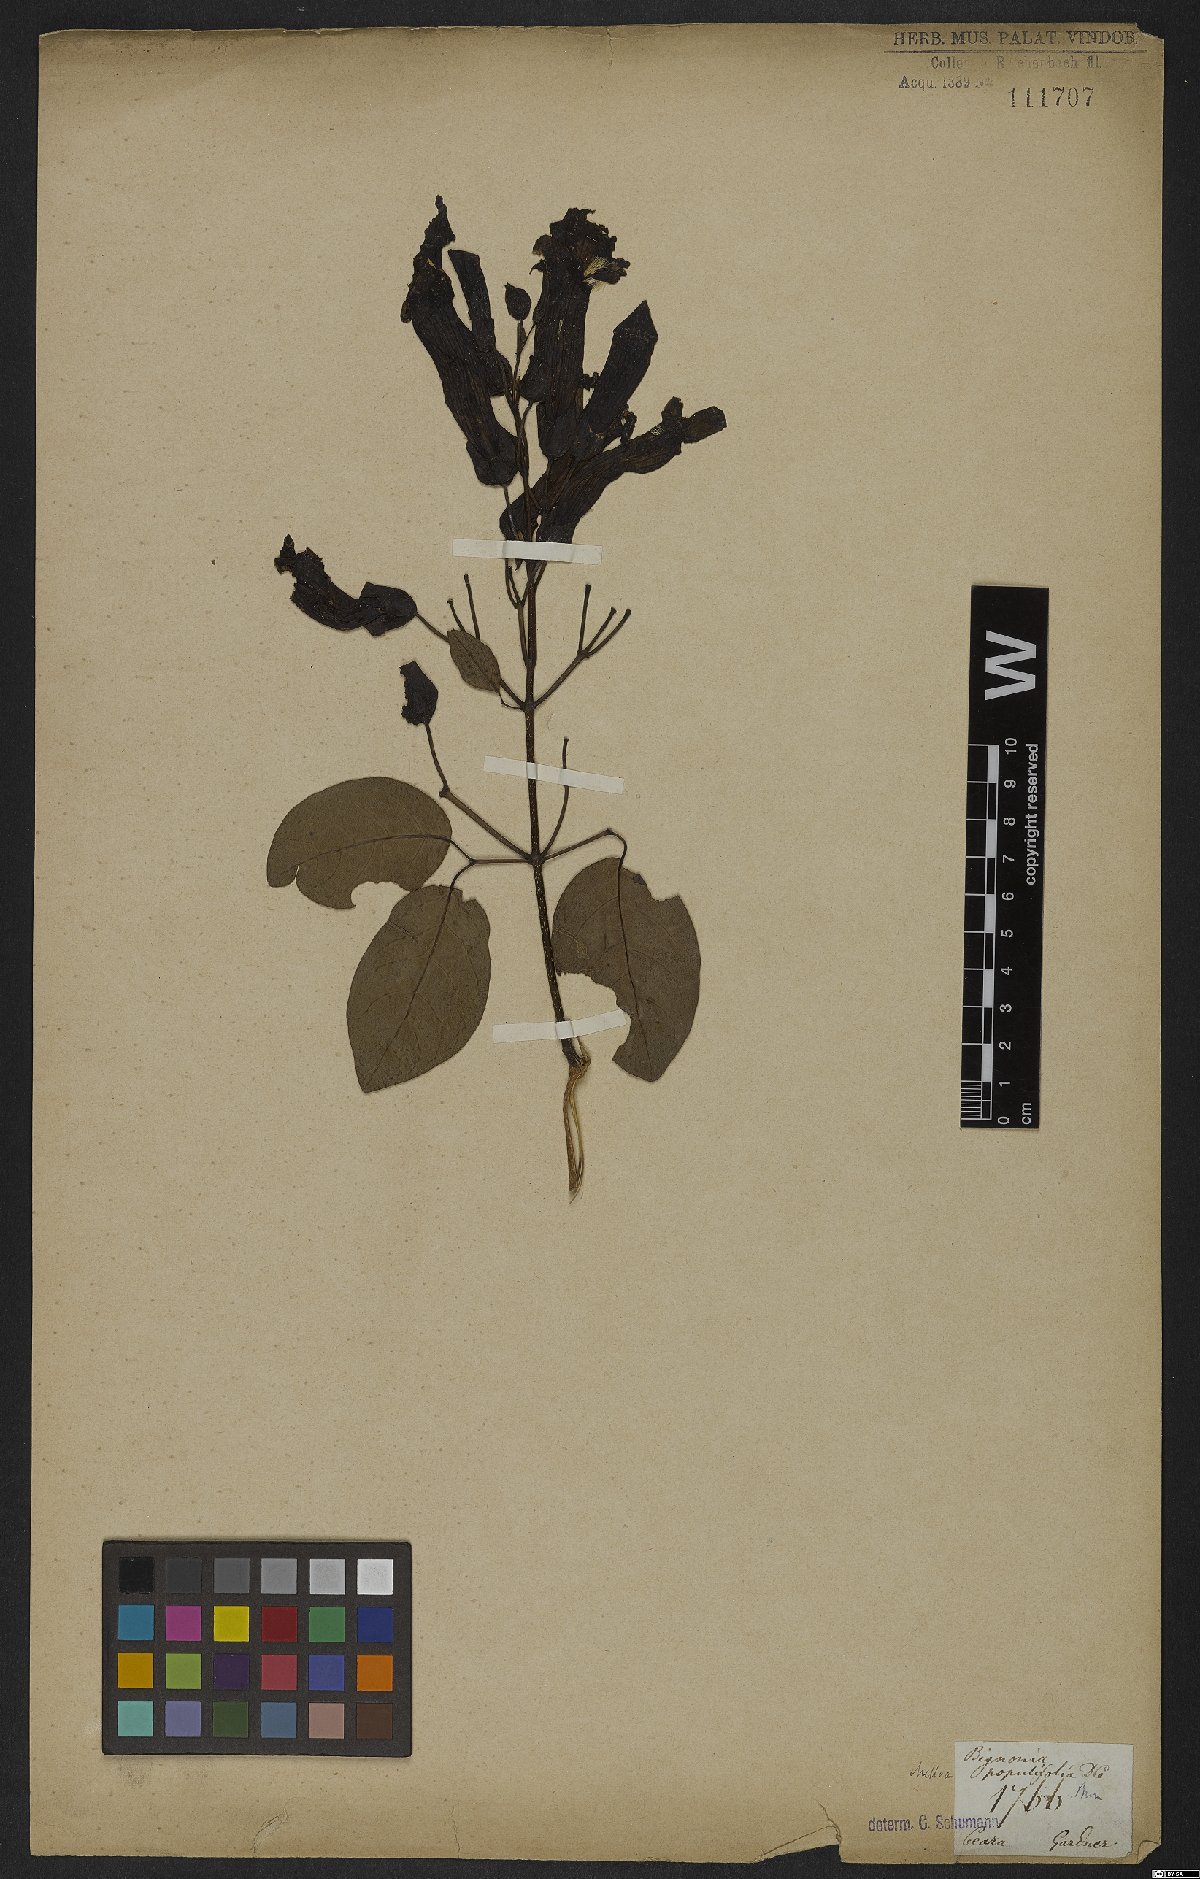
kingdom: Plantae
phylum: Tracheophyta
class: Magnoliopsida
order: Lamiales
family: Bignoniaceae
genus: Dolichandra
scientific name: Dolichandra quadrivalvis
